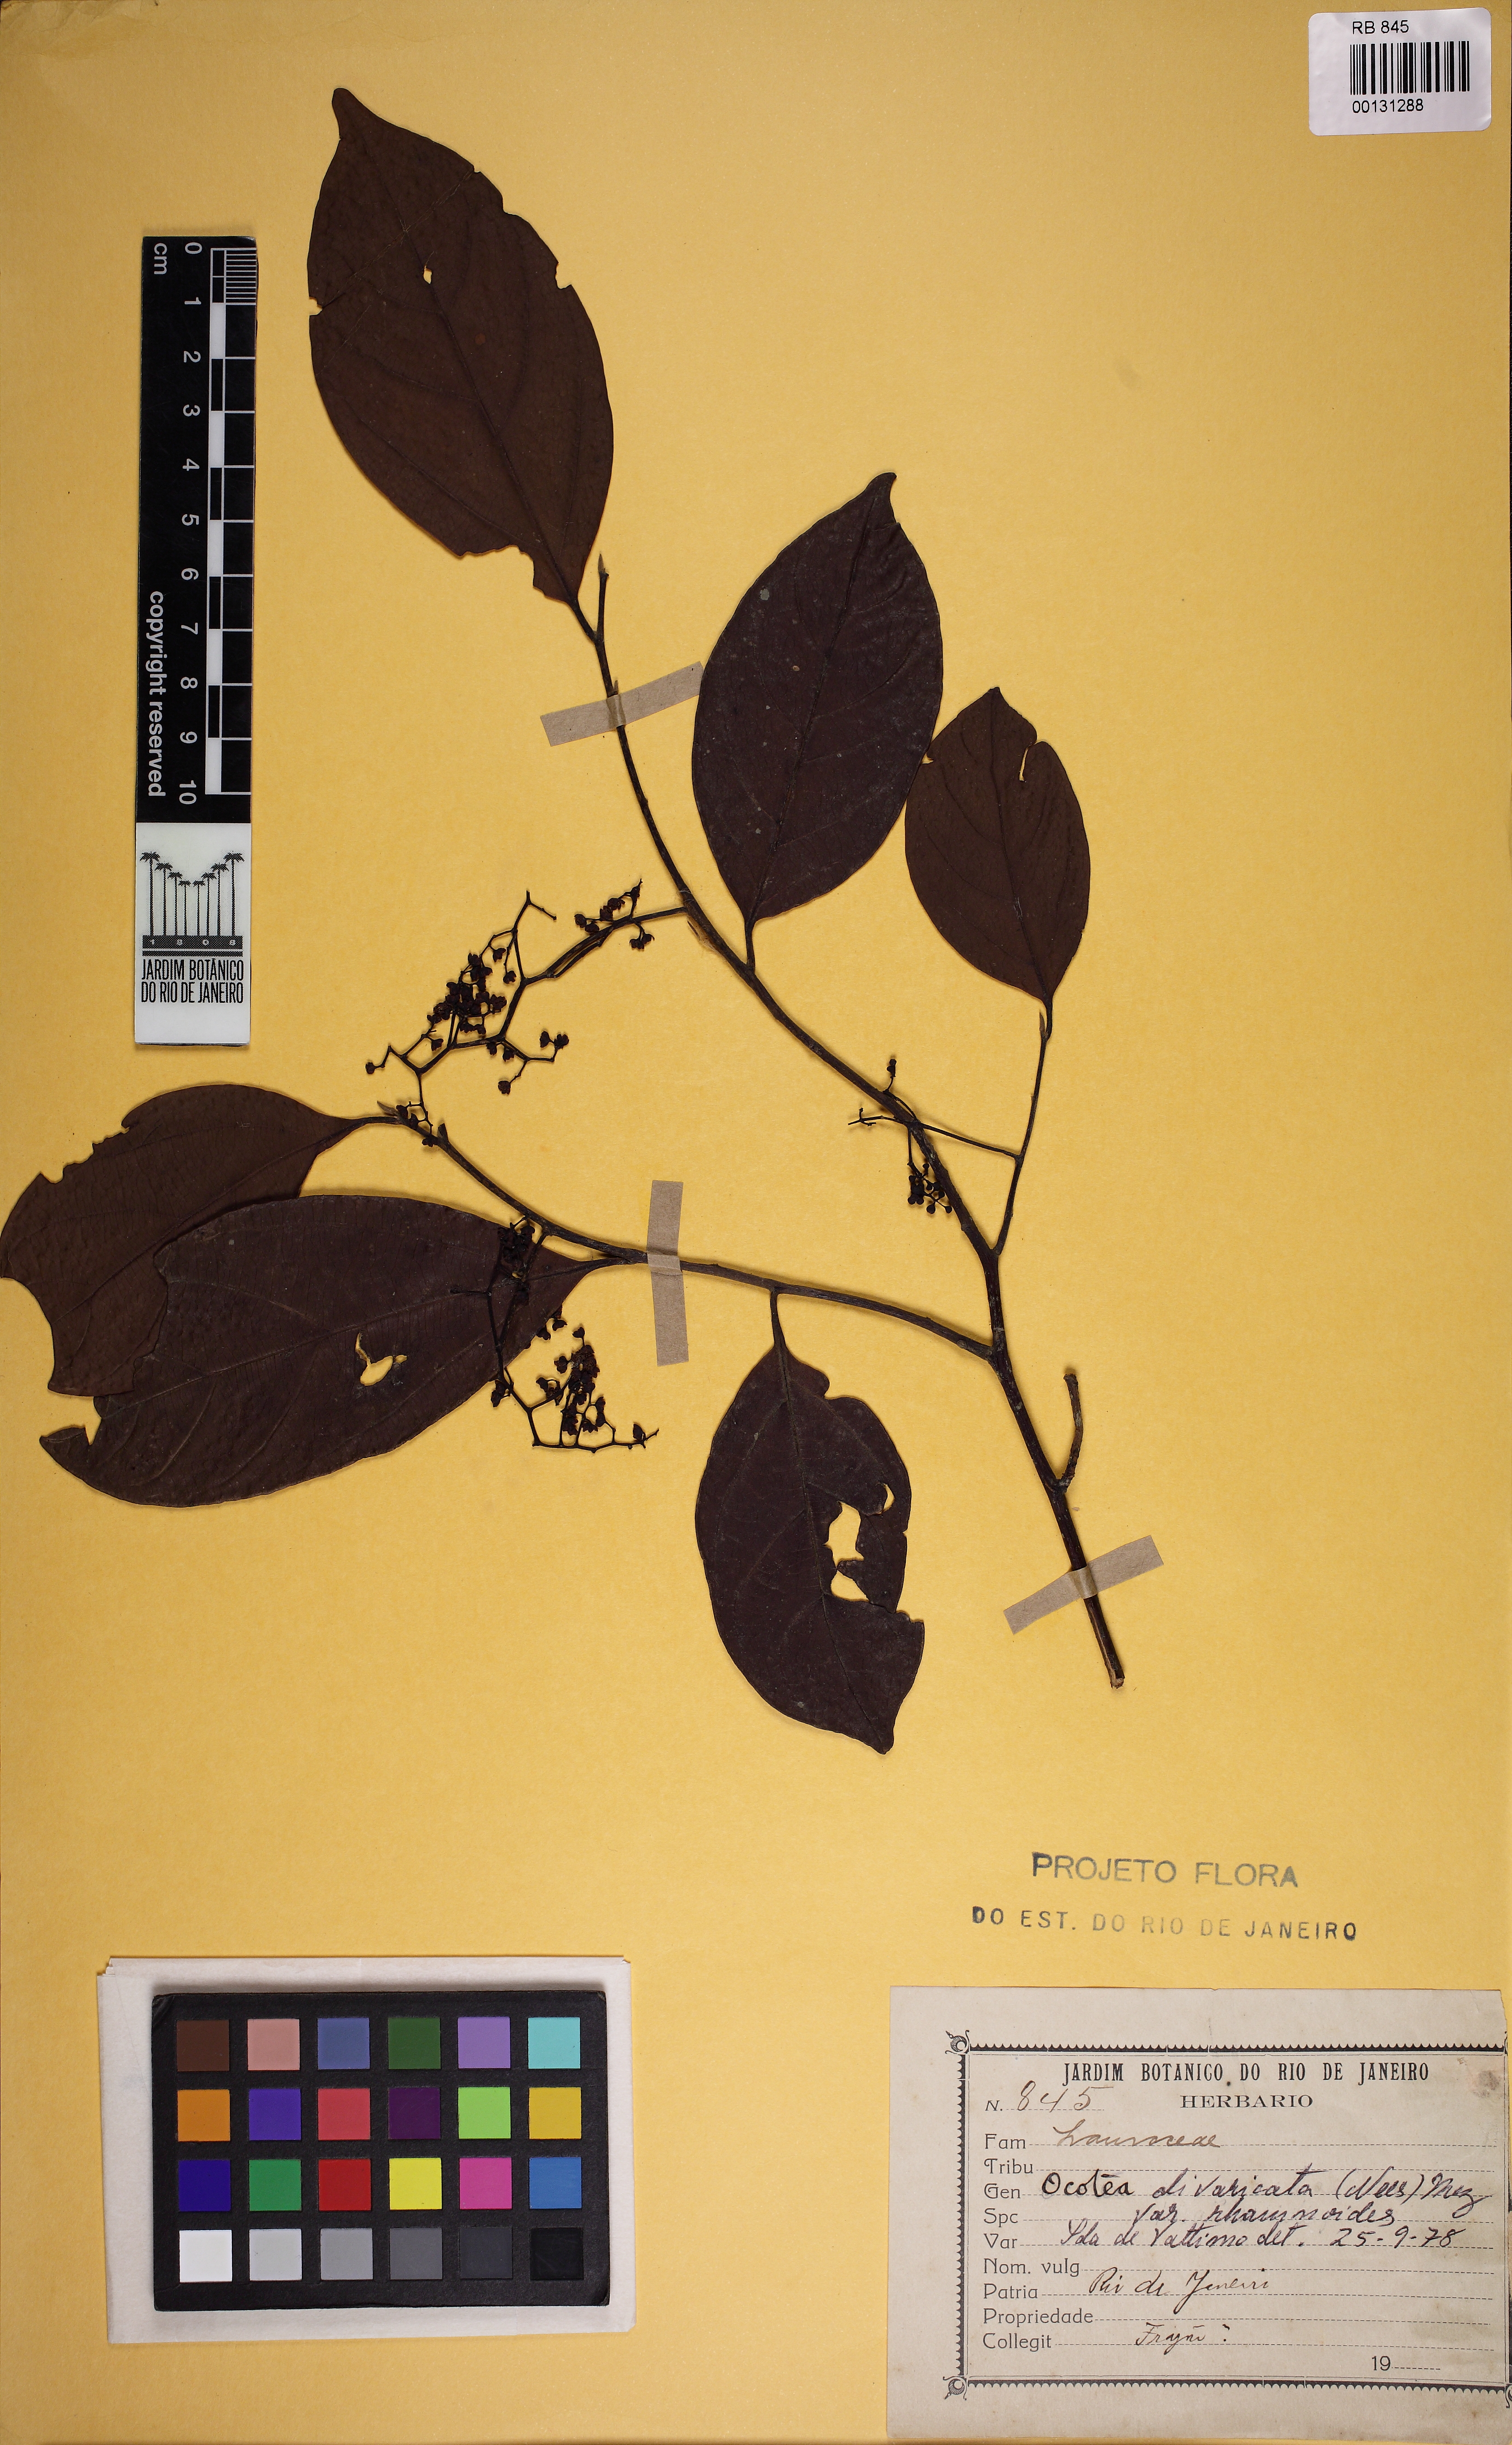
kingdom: Plantae
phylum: Tracheophyta
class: Magnoliopsida
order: Laurales
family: Lauraceae
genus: Ocotea
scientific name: Ocotea divaricata
